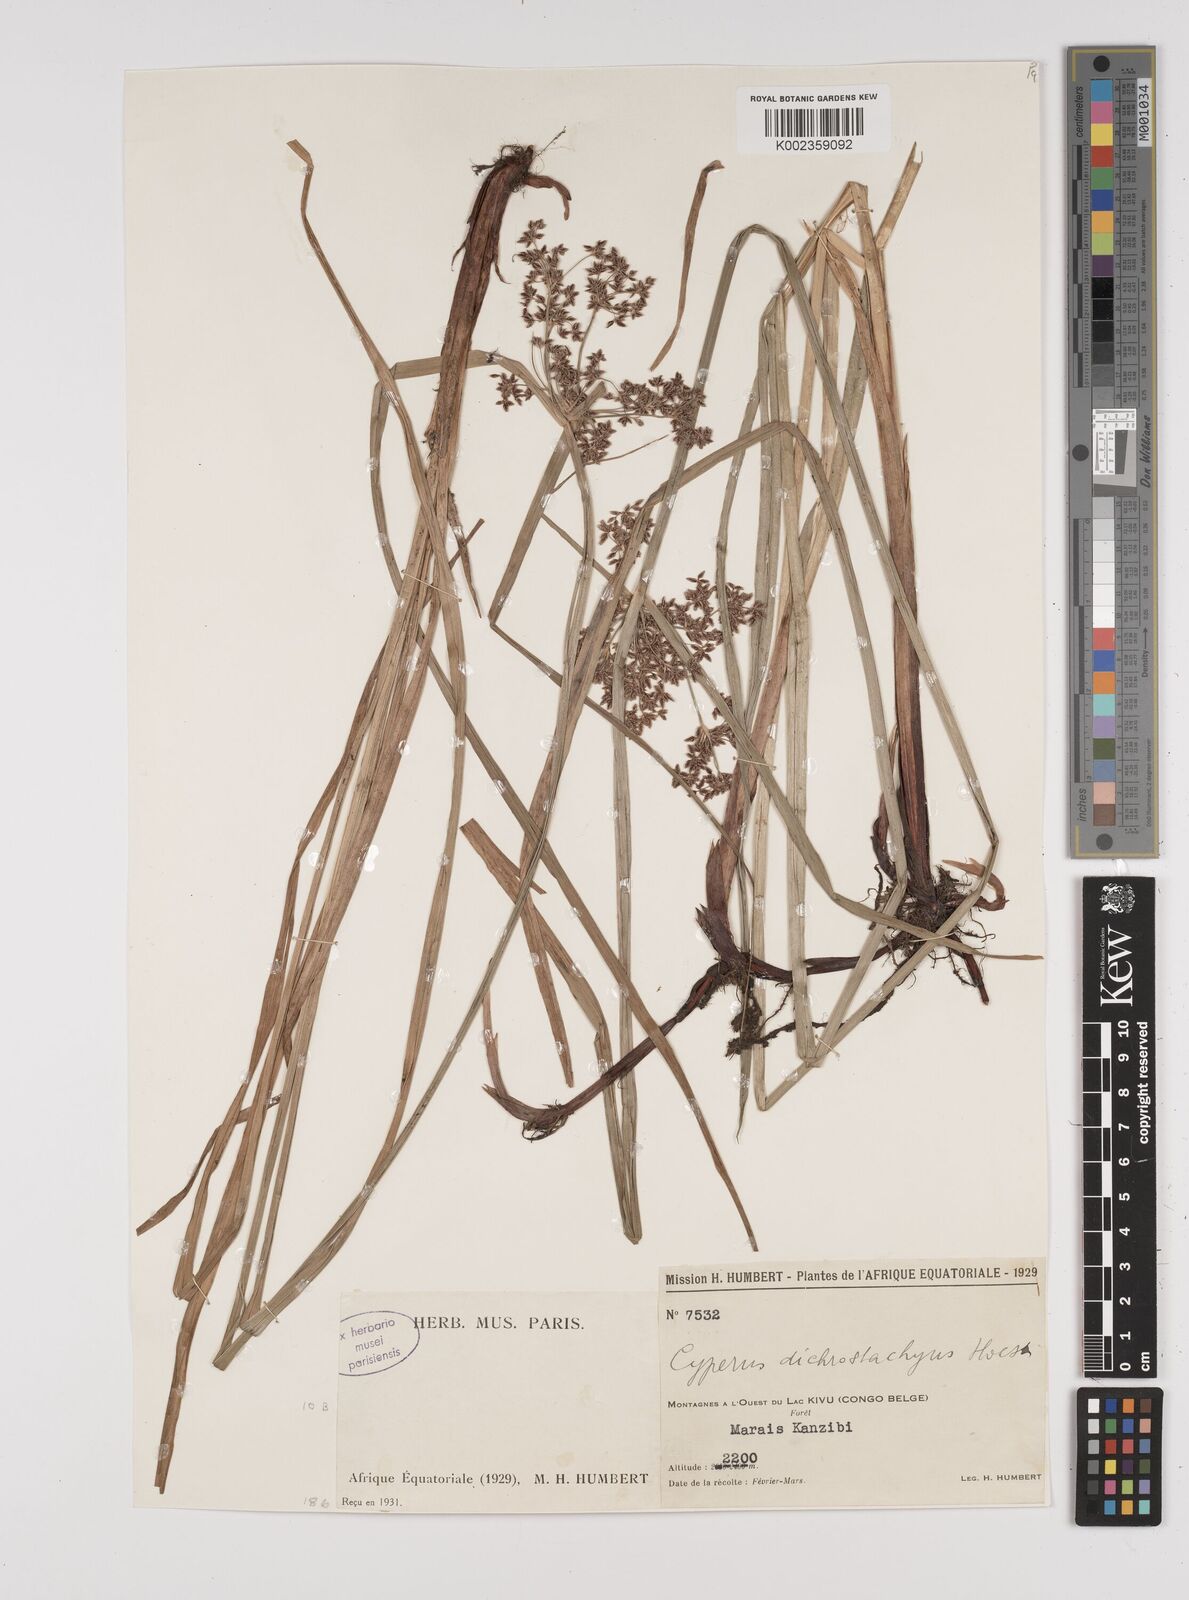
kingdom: Plantae
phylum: Tracheophyta
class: Liliopsida
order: Poales
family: Cyperaceae
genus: Cyperus
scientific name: Cyperus dichrostachyus
